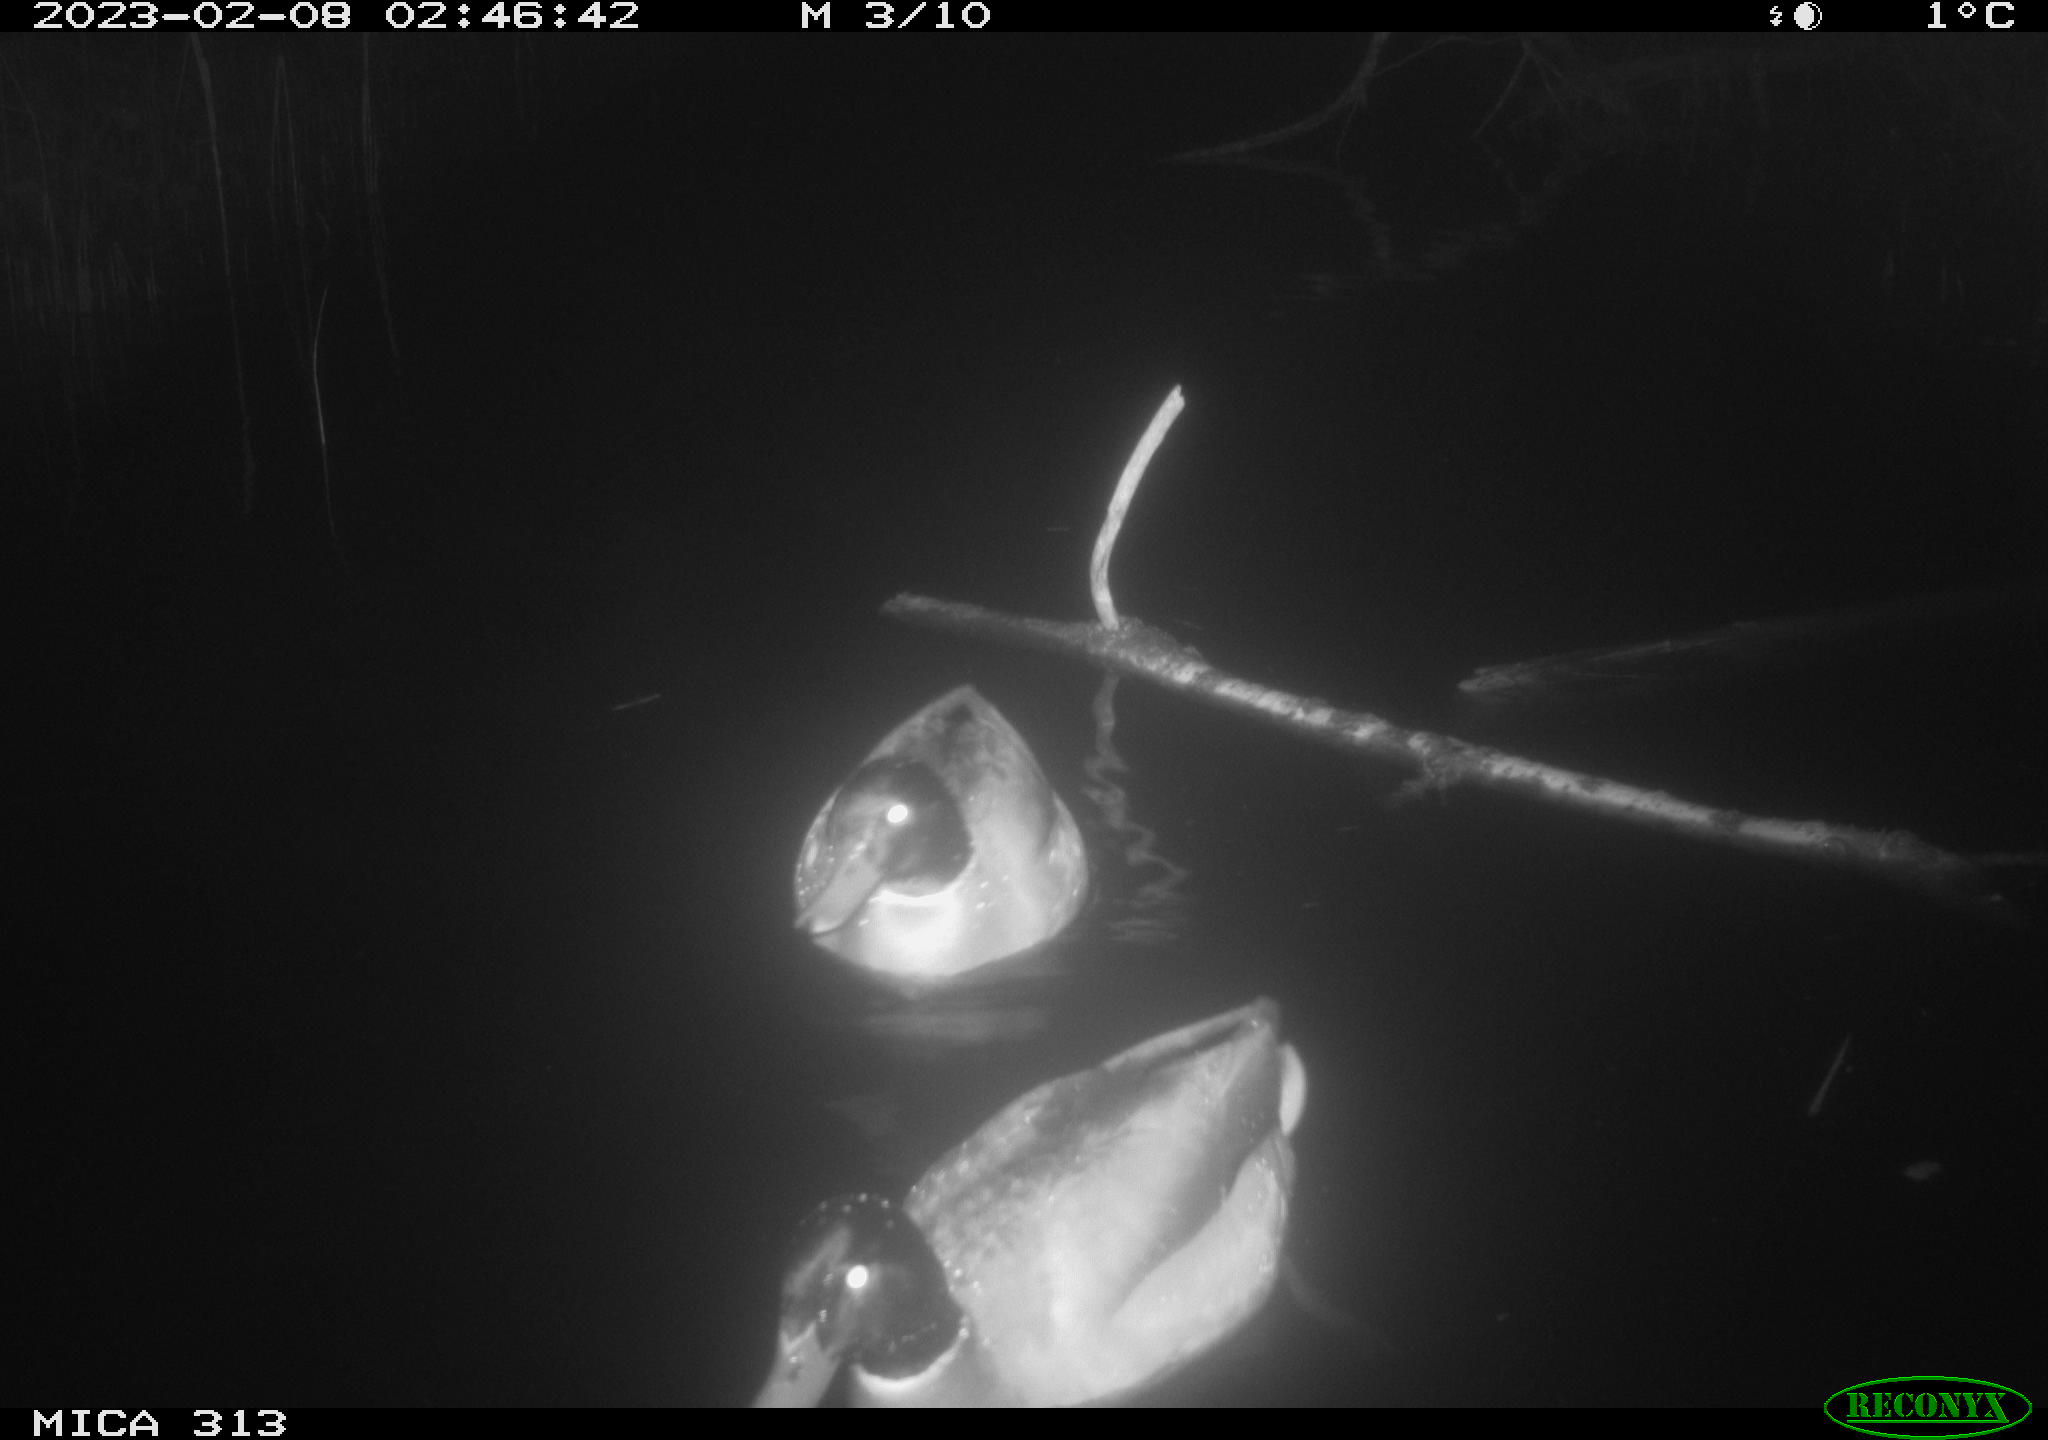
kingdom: Animalia
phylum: Chordata
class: Aves
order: Anseriformes
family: Anatidae
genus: Anas
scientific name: Anas
